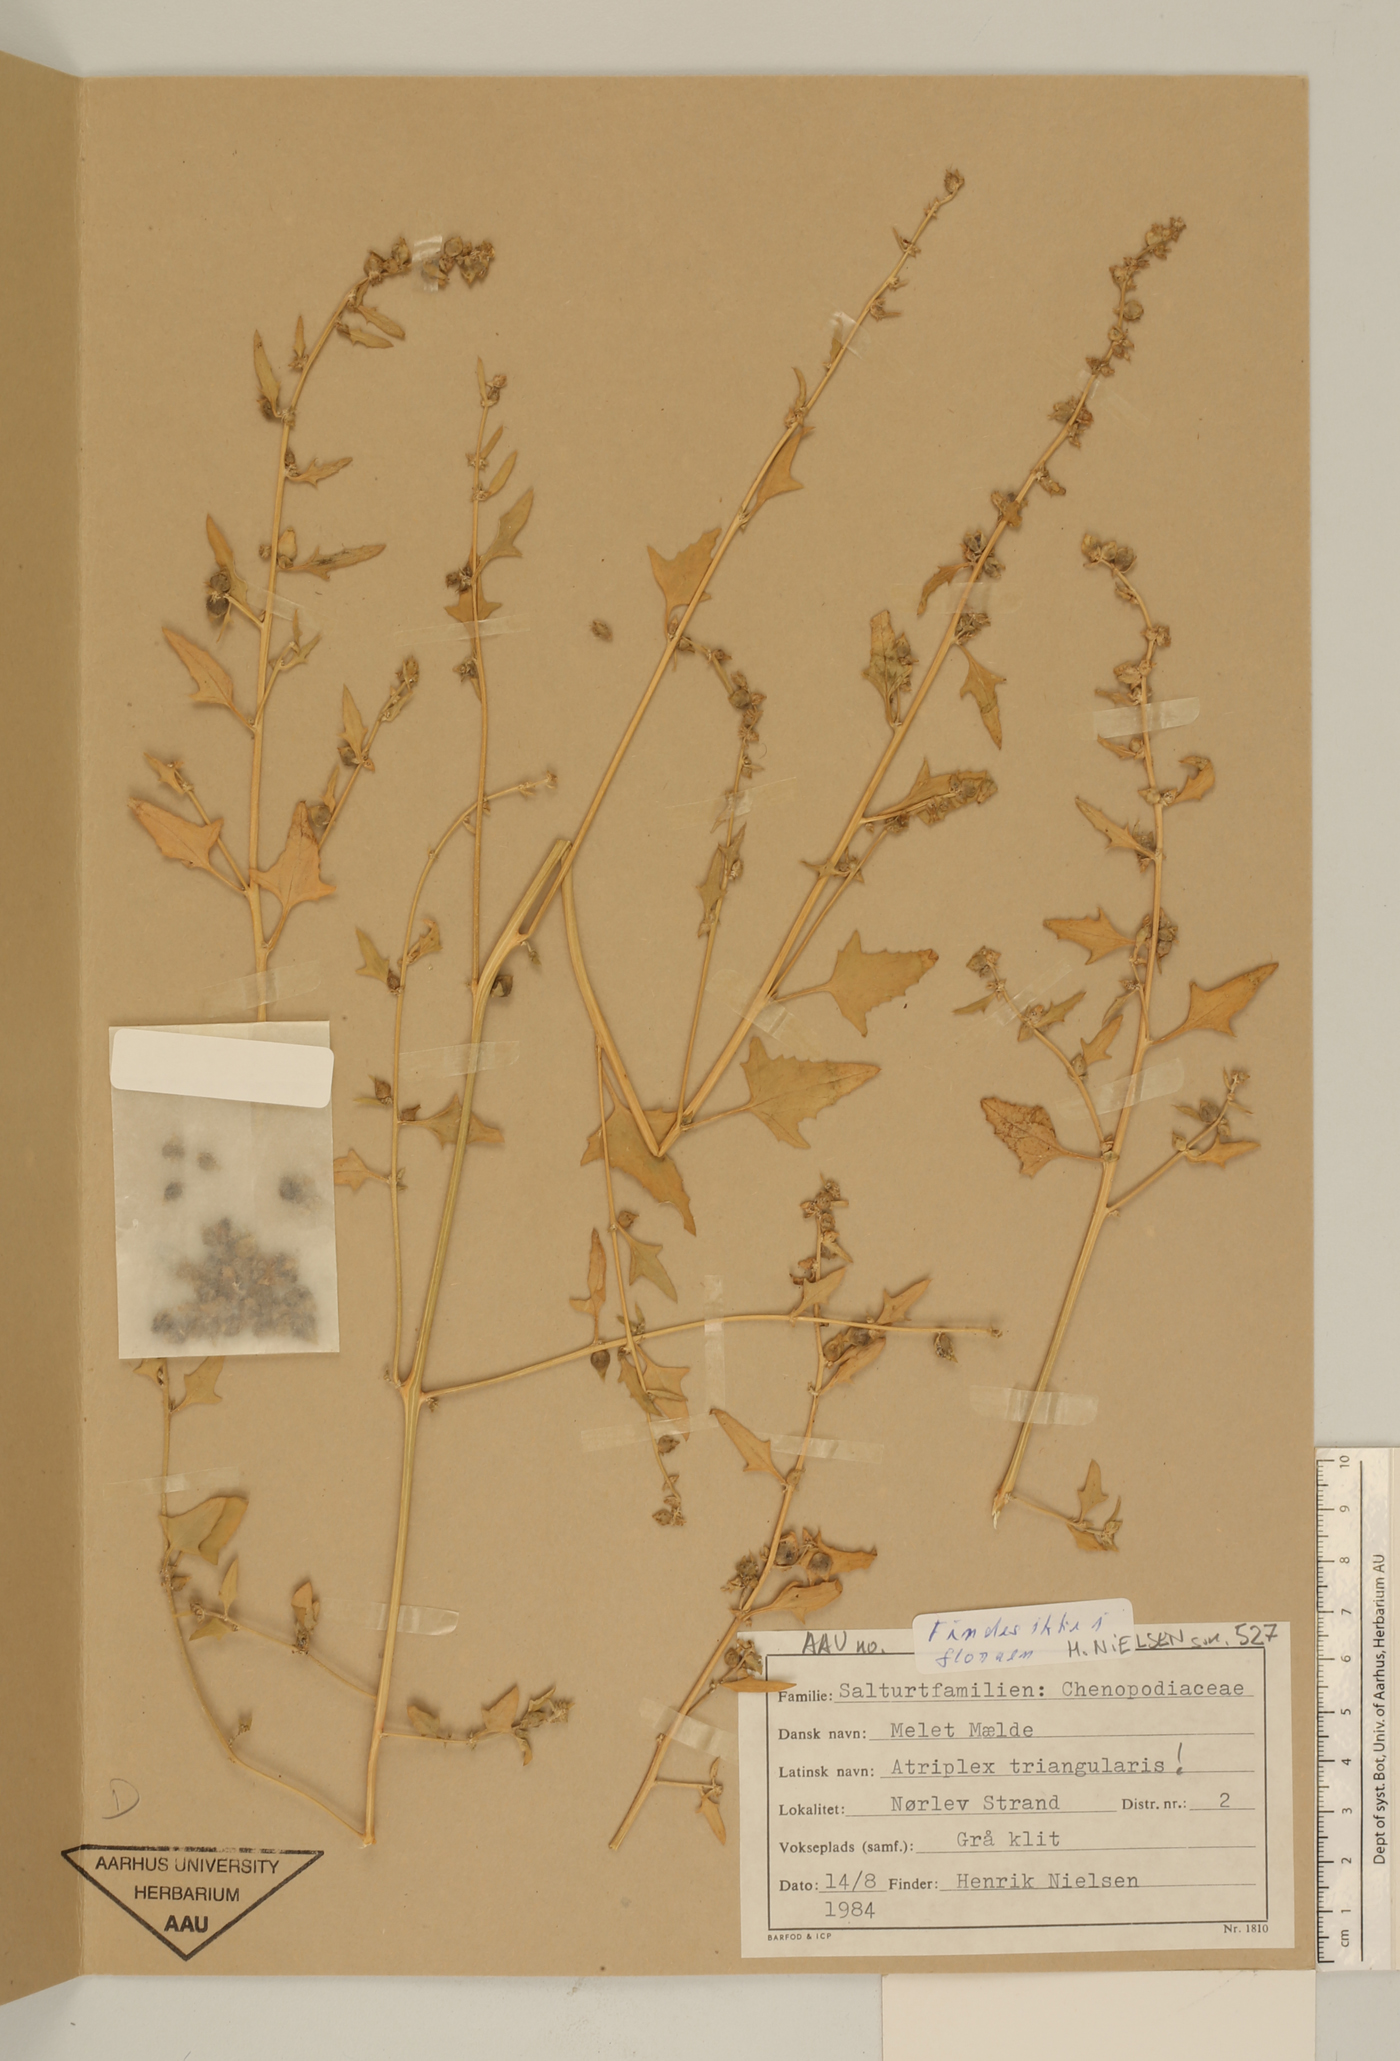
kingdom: Plantae
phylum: Tracheophyta
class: Magnoliopsida
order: Caryophyllales
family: Amaranthaceae
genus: Atriplex
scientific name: Atriplex prostrata
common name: Spear-leaved orache
